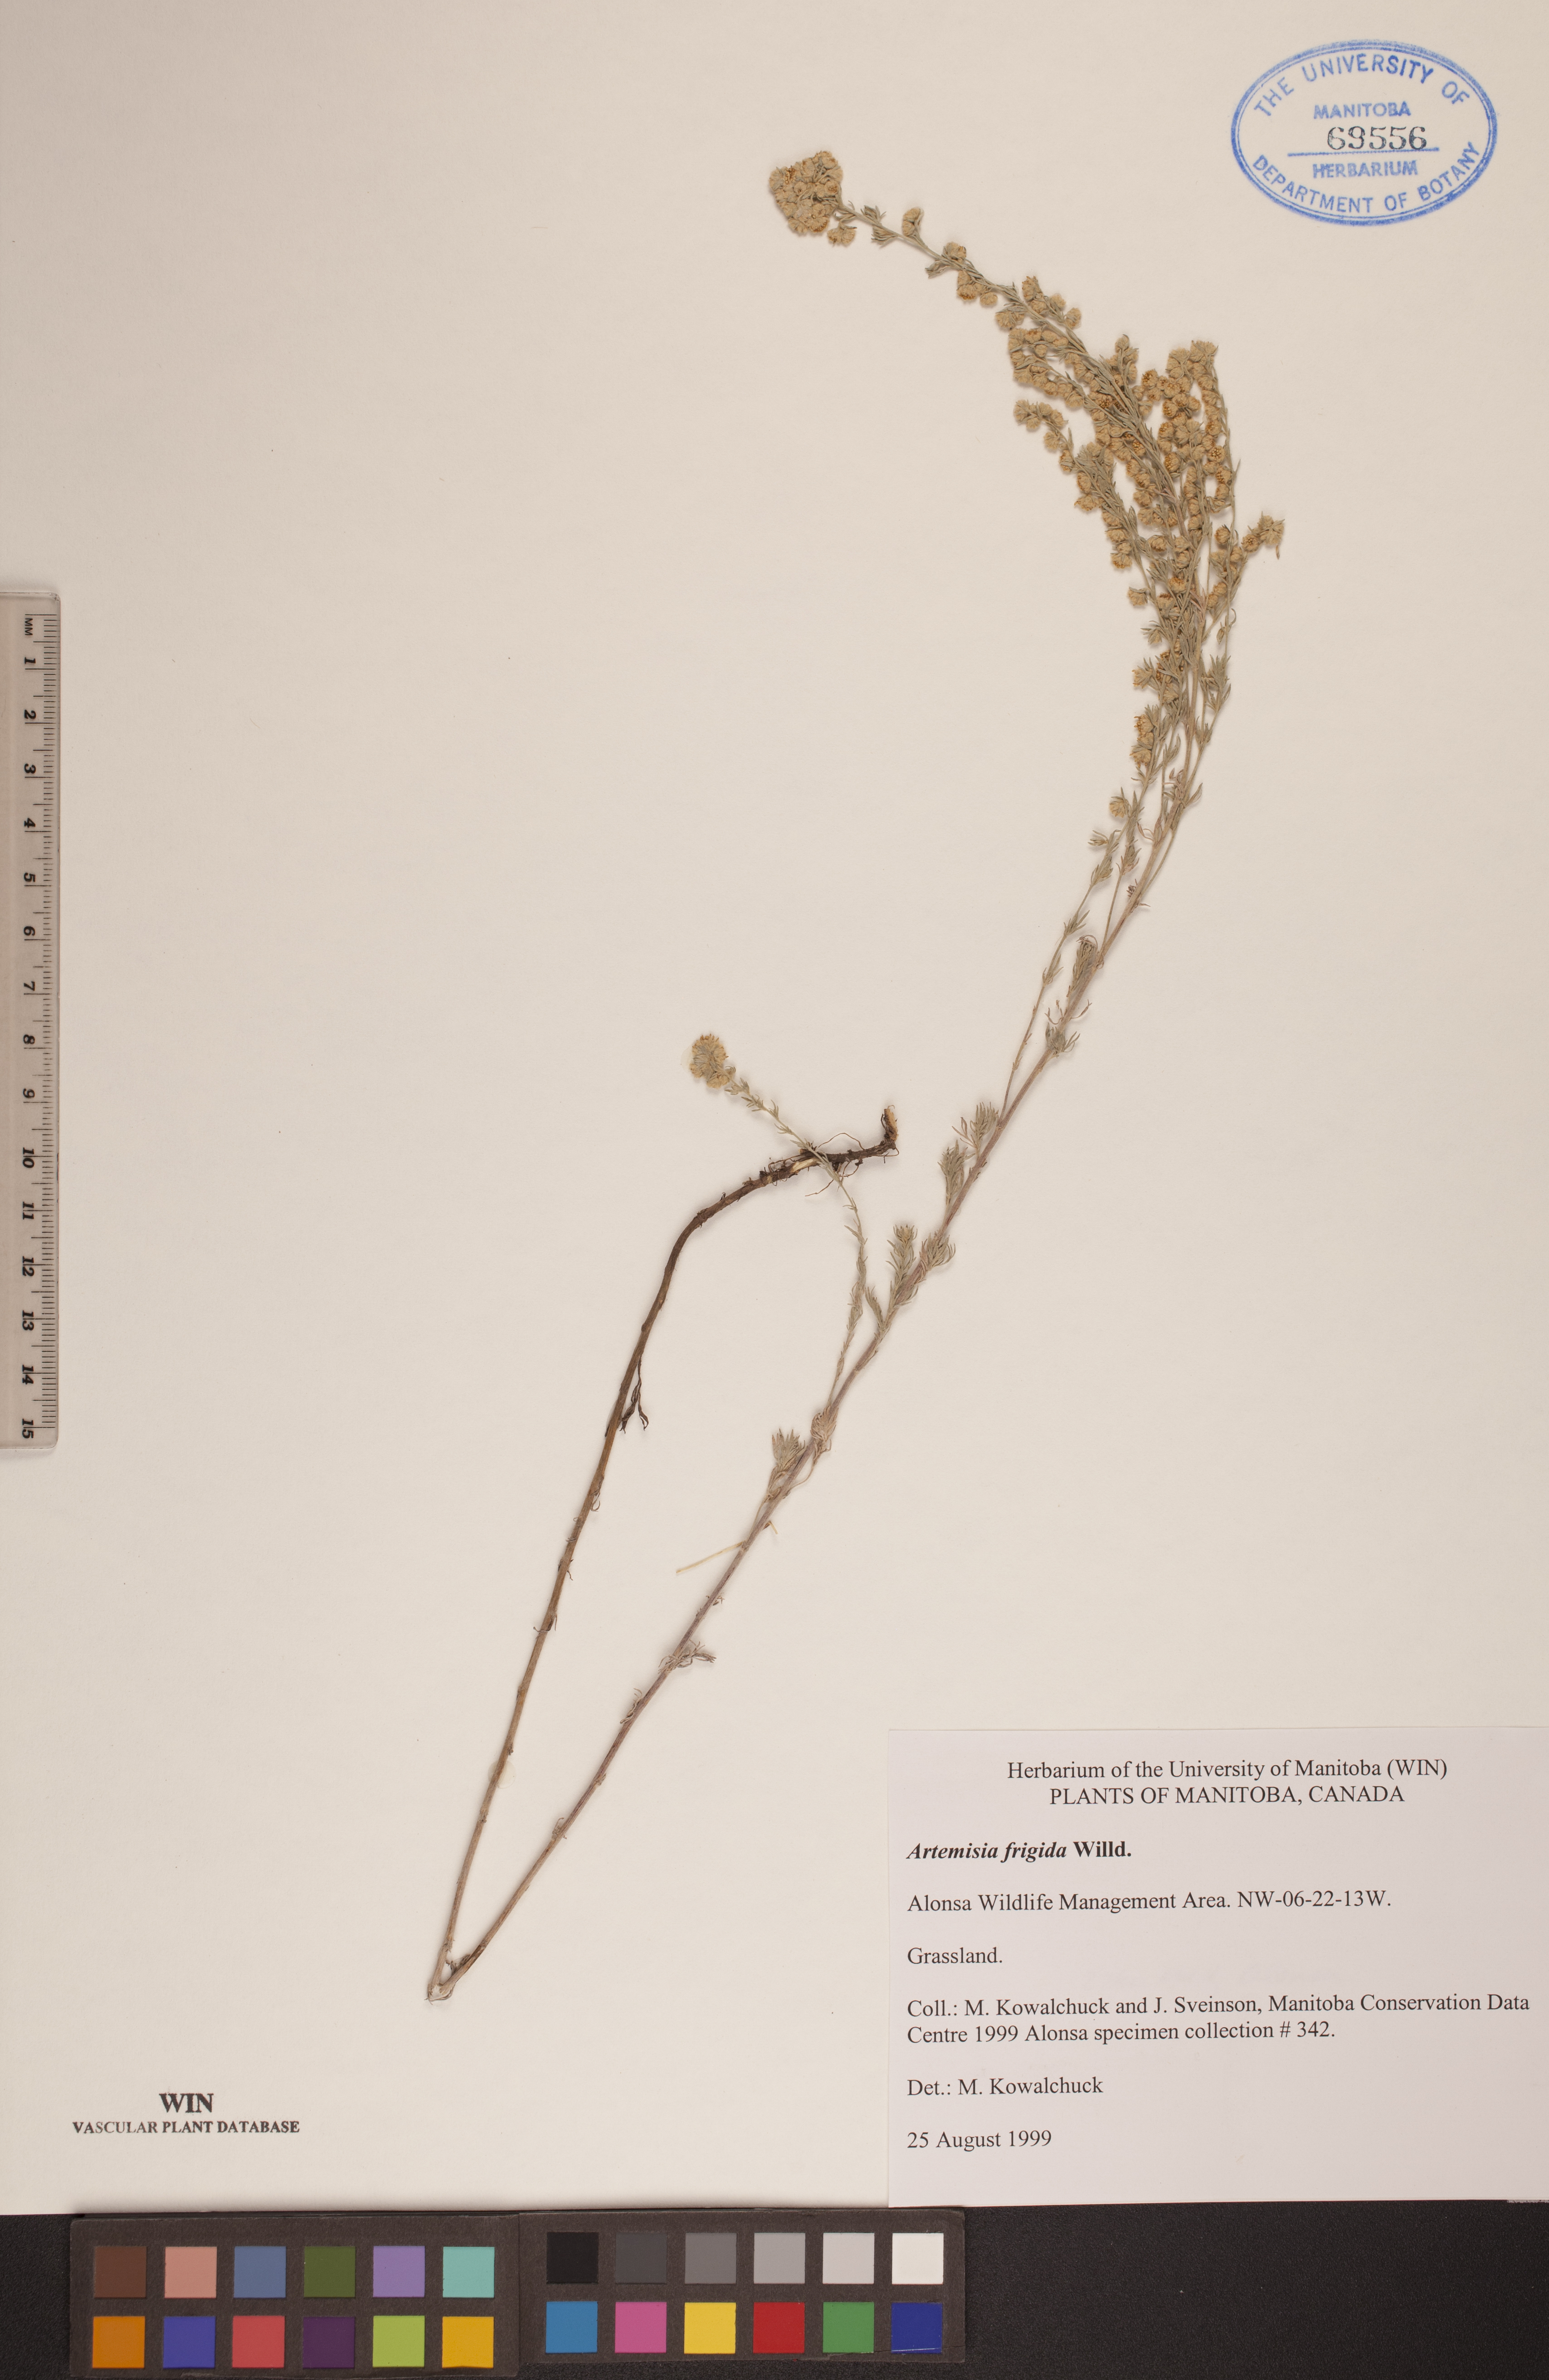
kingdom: Plantae
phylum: Tracheophyta
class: Magnoliopsida
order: Asterales
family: Asteraceae
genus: Artemisia
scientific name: Artemisia frigida
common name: Prairie sagewort
